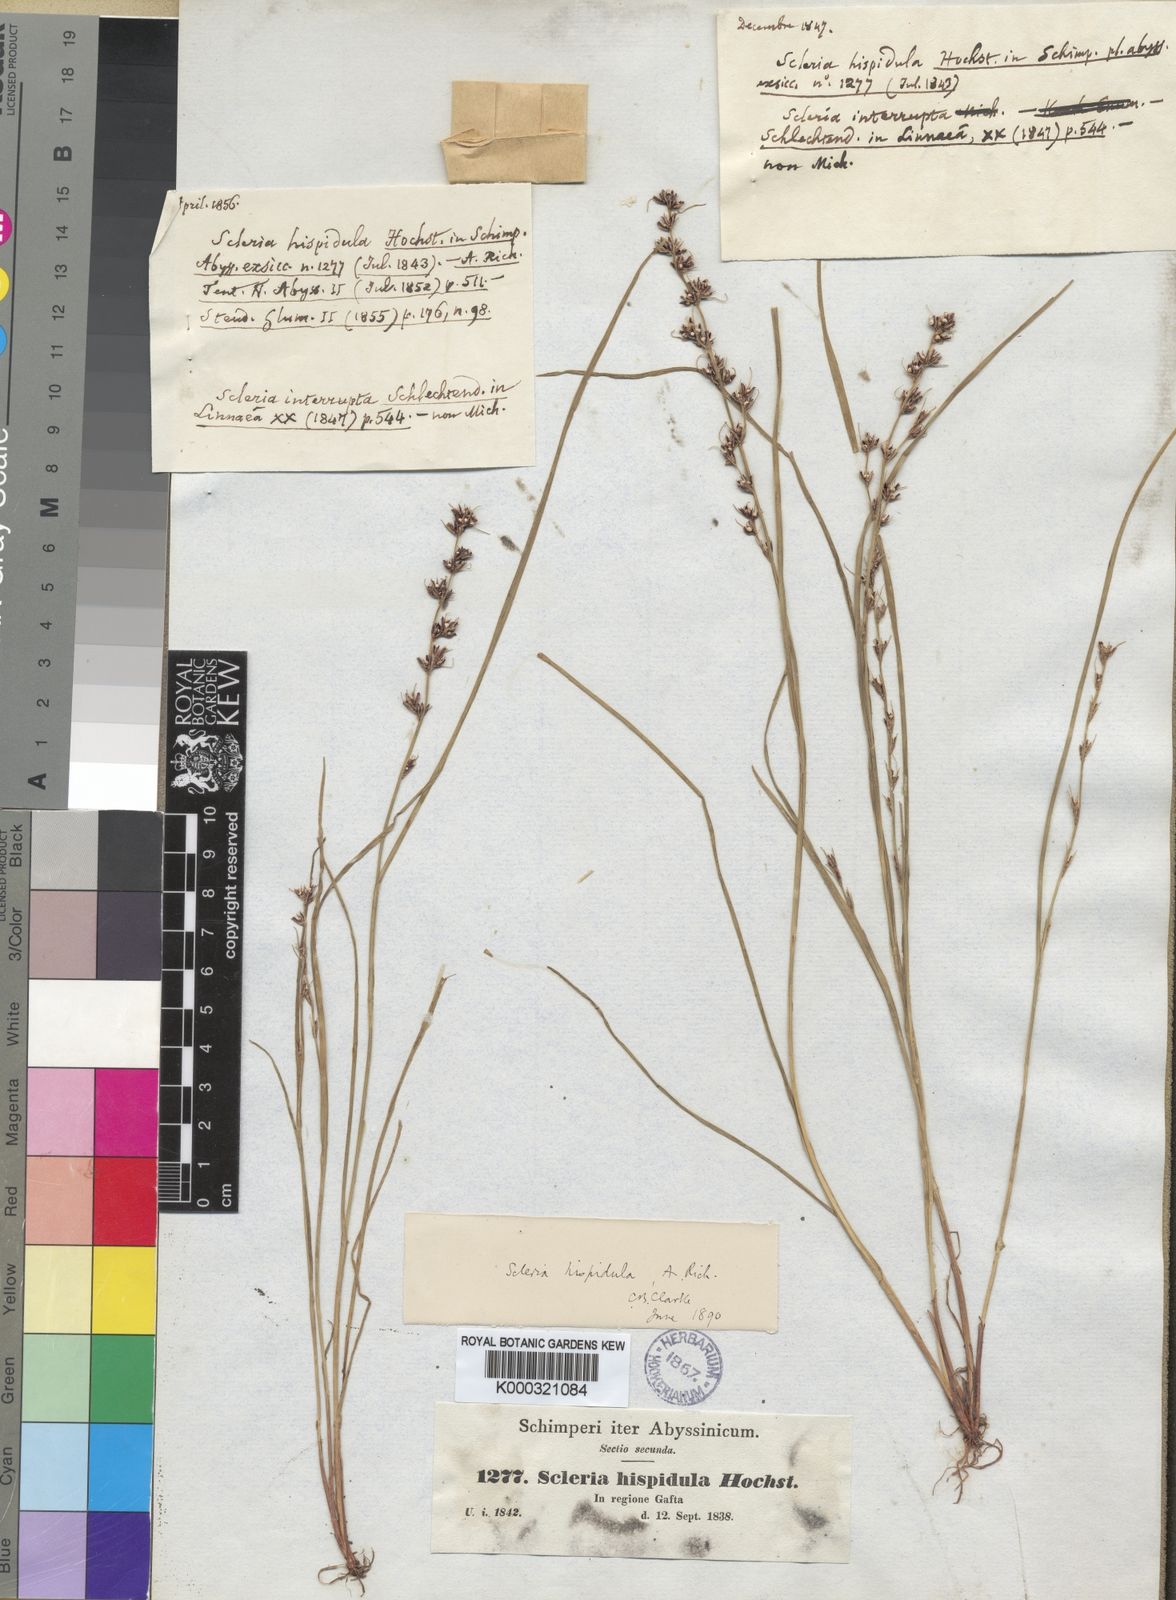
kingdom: Plantae
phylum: Tracheophyta
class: Liliopsida
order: Poales
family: Cyperaceae
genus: Scleria
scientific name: Scleria hispidula
